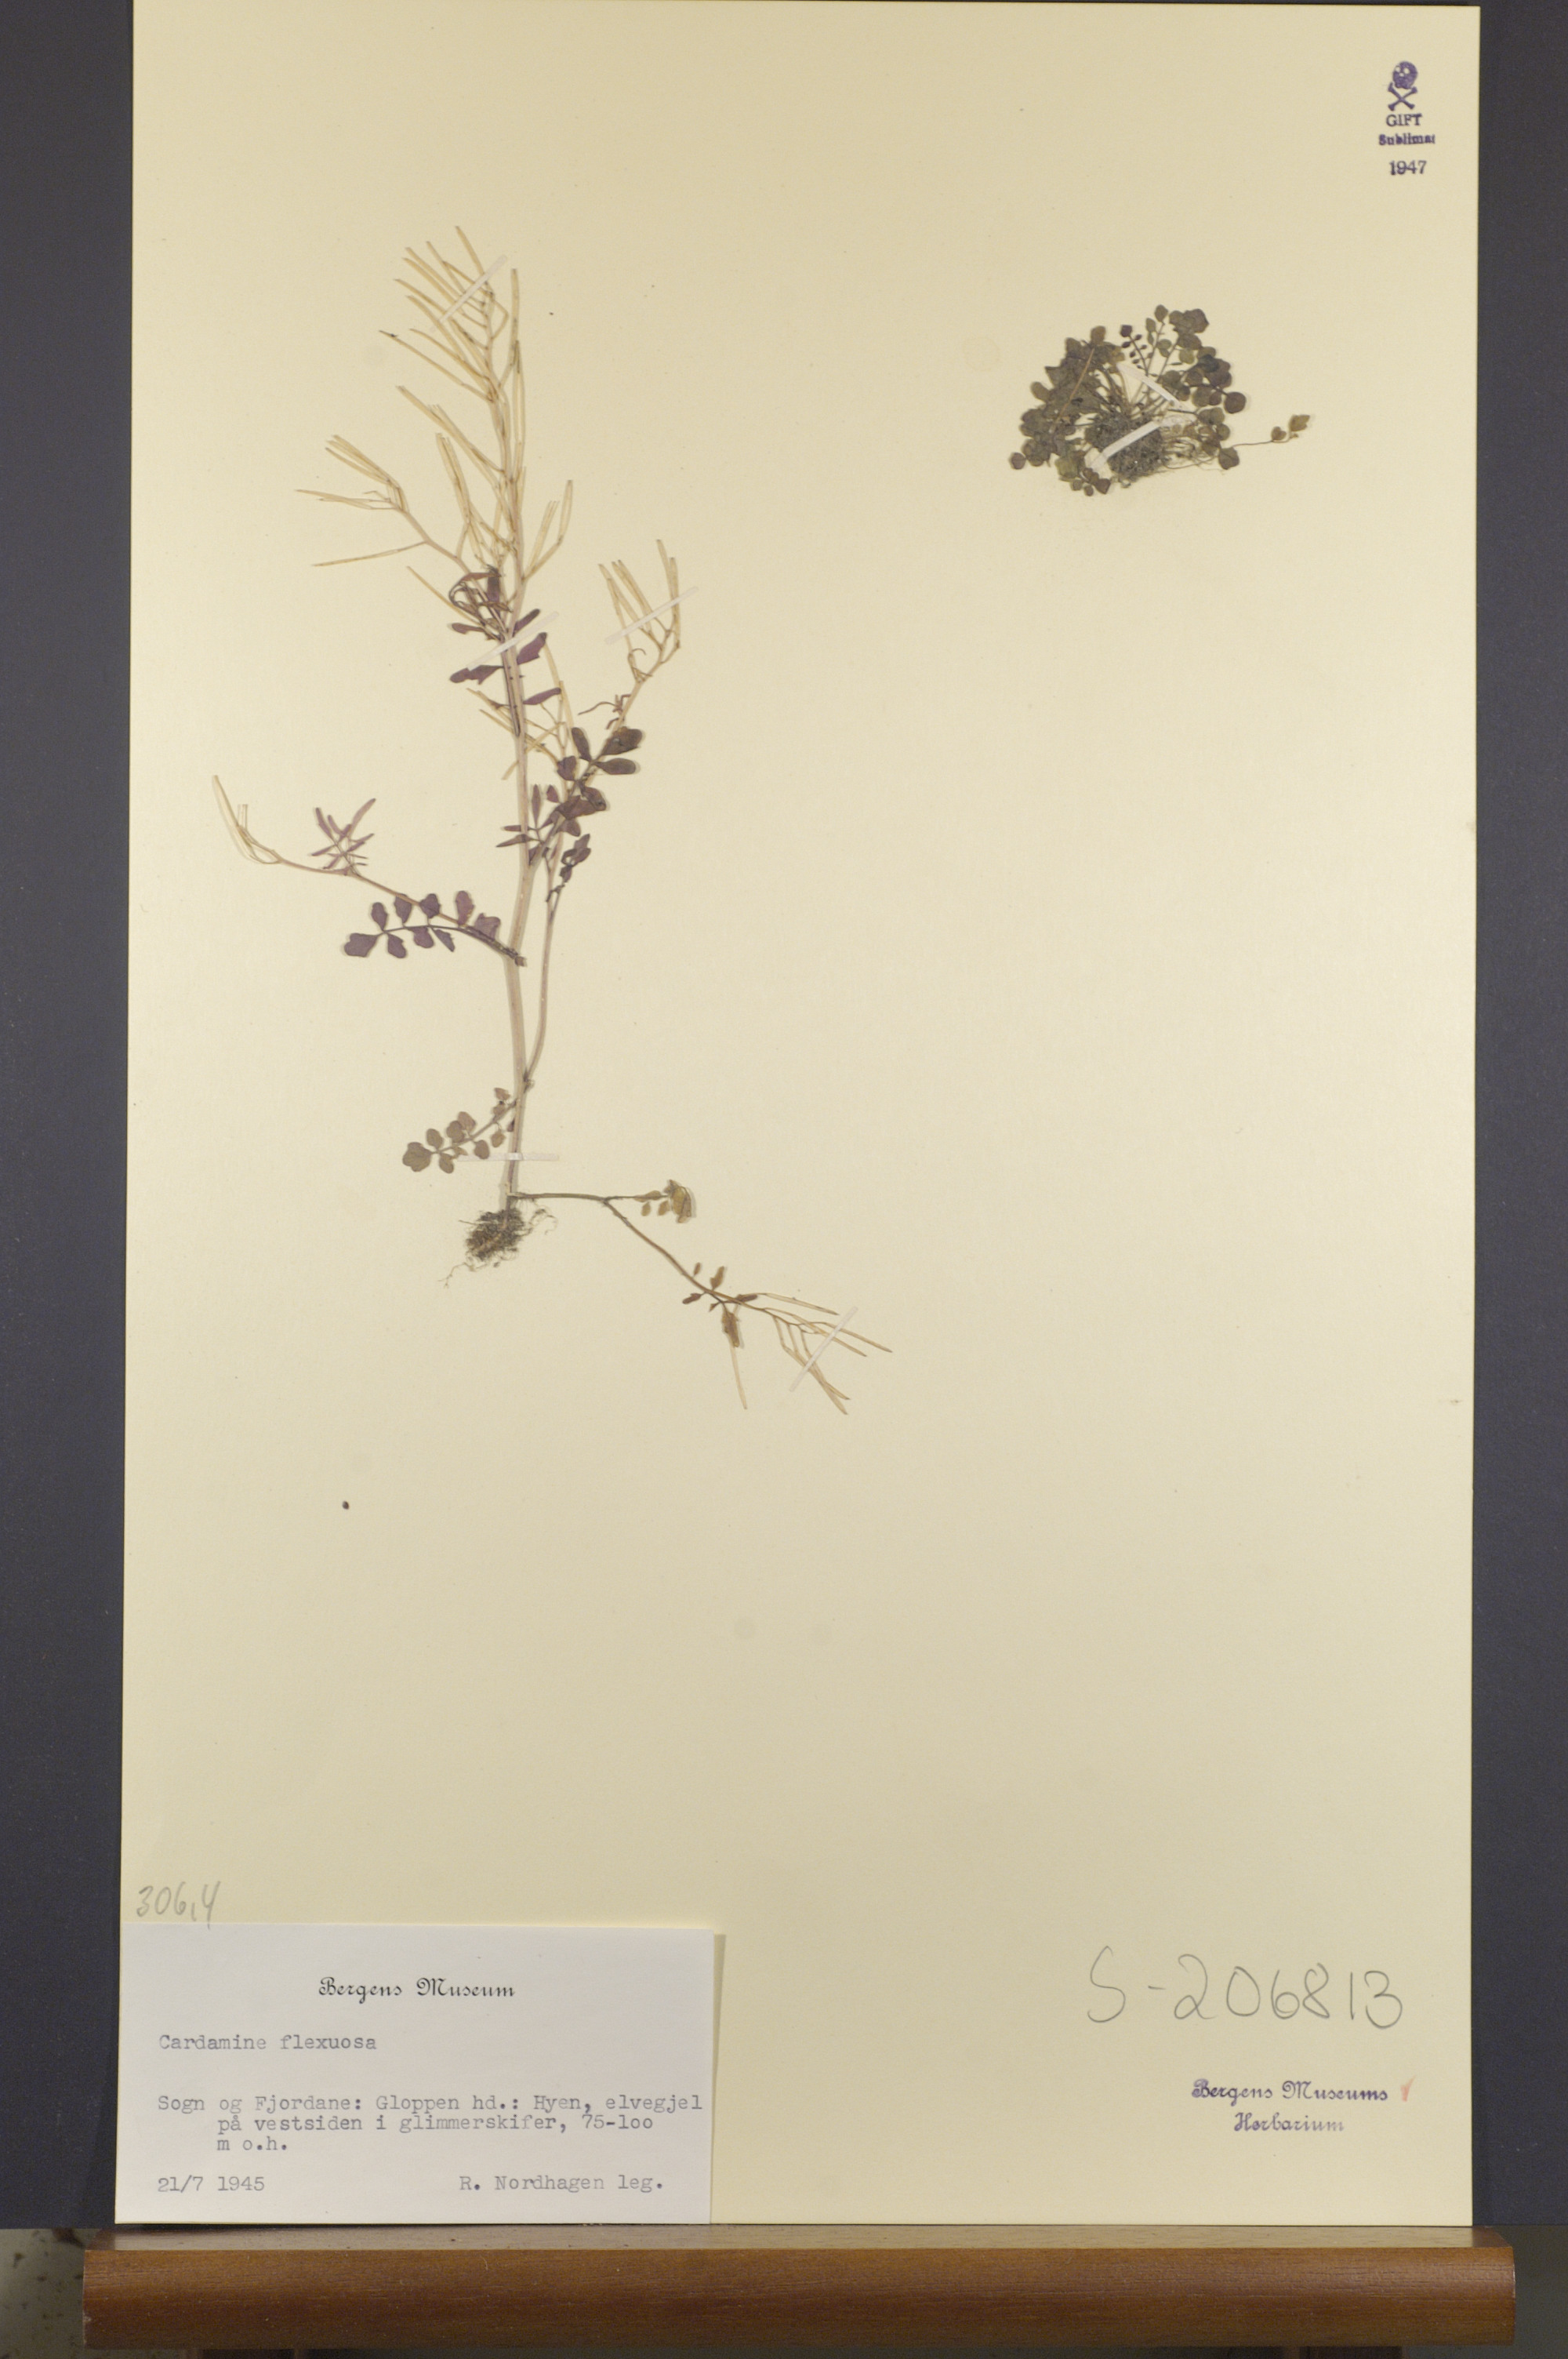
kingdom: Plantae
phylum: Tracheophyta
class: Magnoliopsida
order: Brassicales
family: Brassicaceae
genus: Cardamine
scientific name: Cardamine flexuosa
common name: Woodland bittercress
